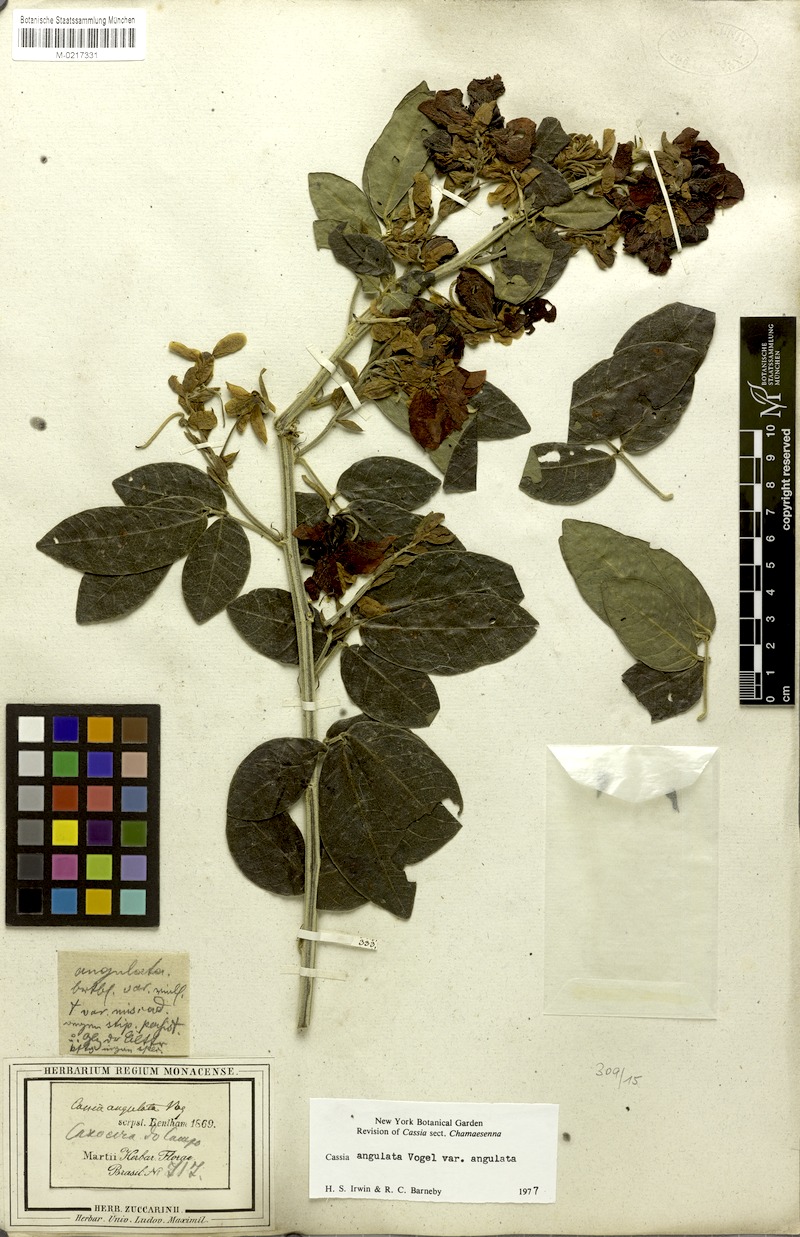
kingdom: Plantae
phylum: Tracheophyta
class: Magnoliopsida
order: Fabales
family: Fabaceae
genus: Senna
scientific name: Senna angulata
